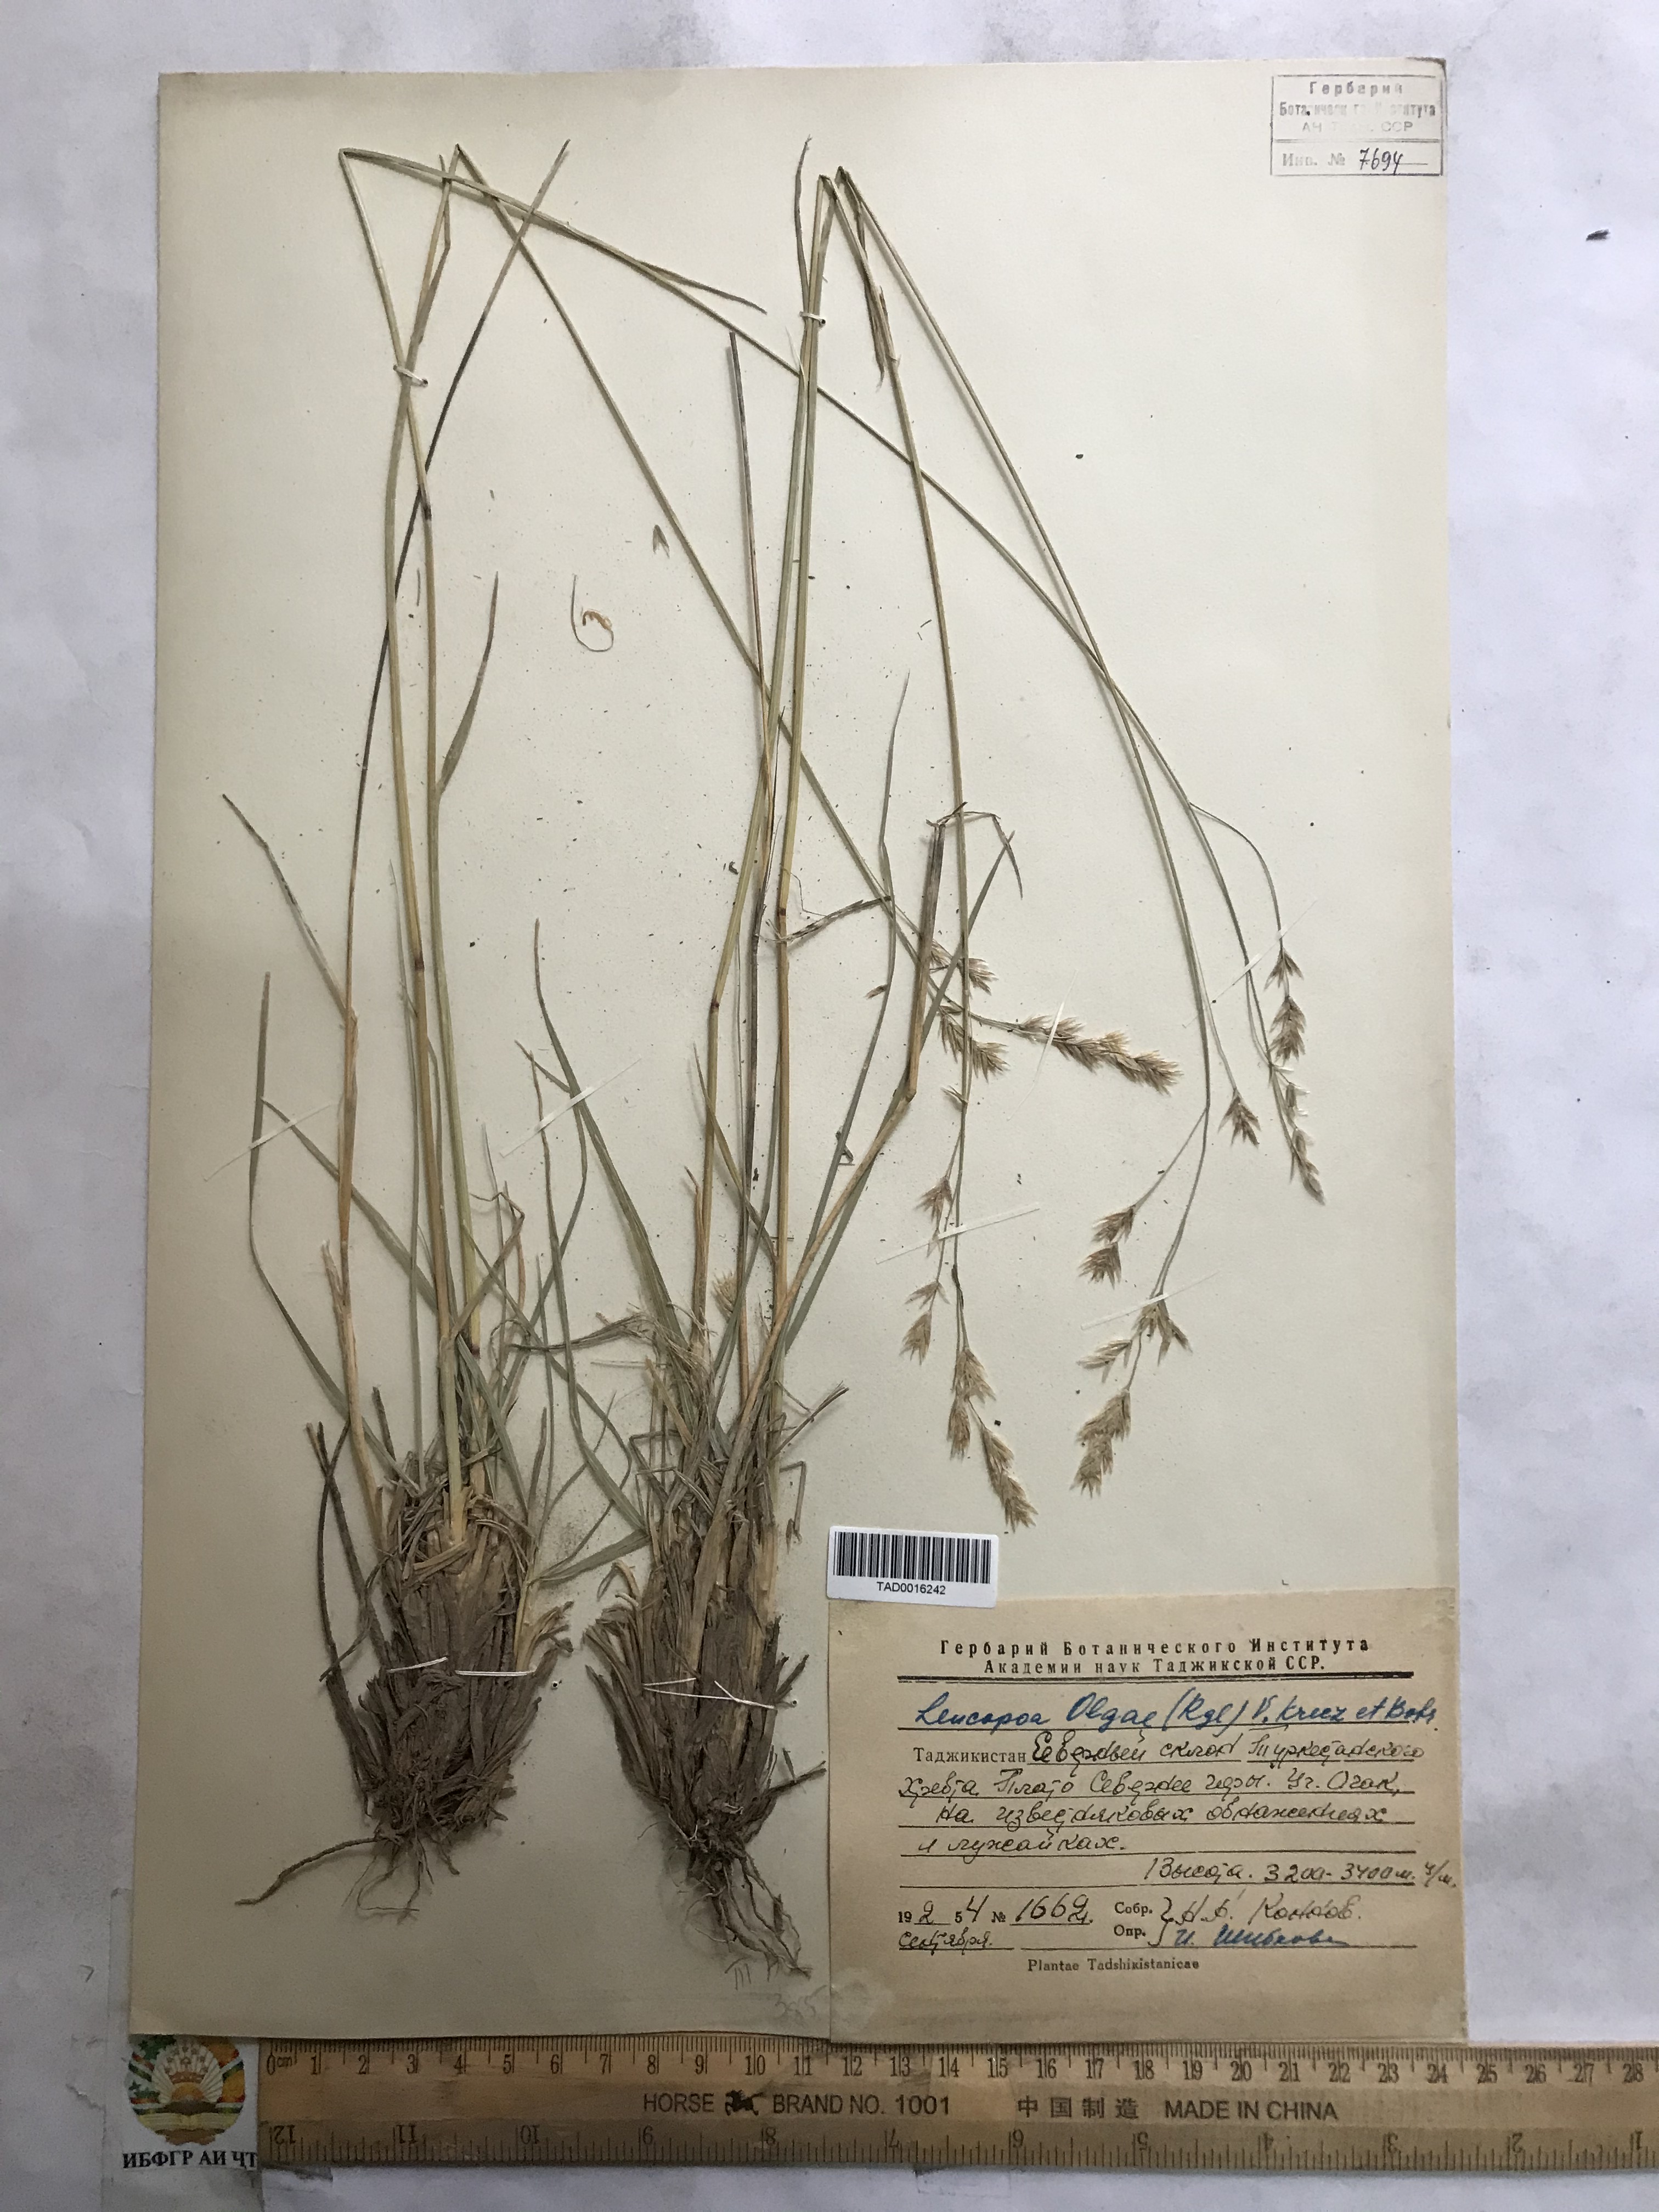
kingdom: Plantae
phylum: Tracheophyta
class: Liliopsida
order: Poales
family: Poaceae
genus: Festuca
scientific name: Festuca
